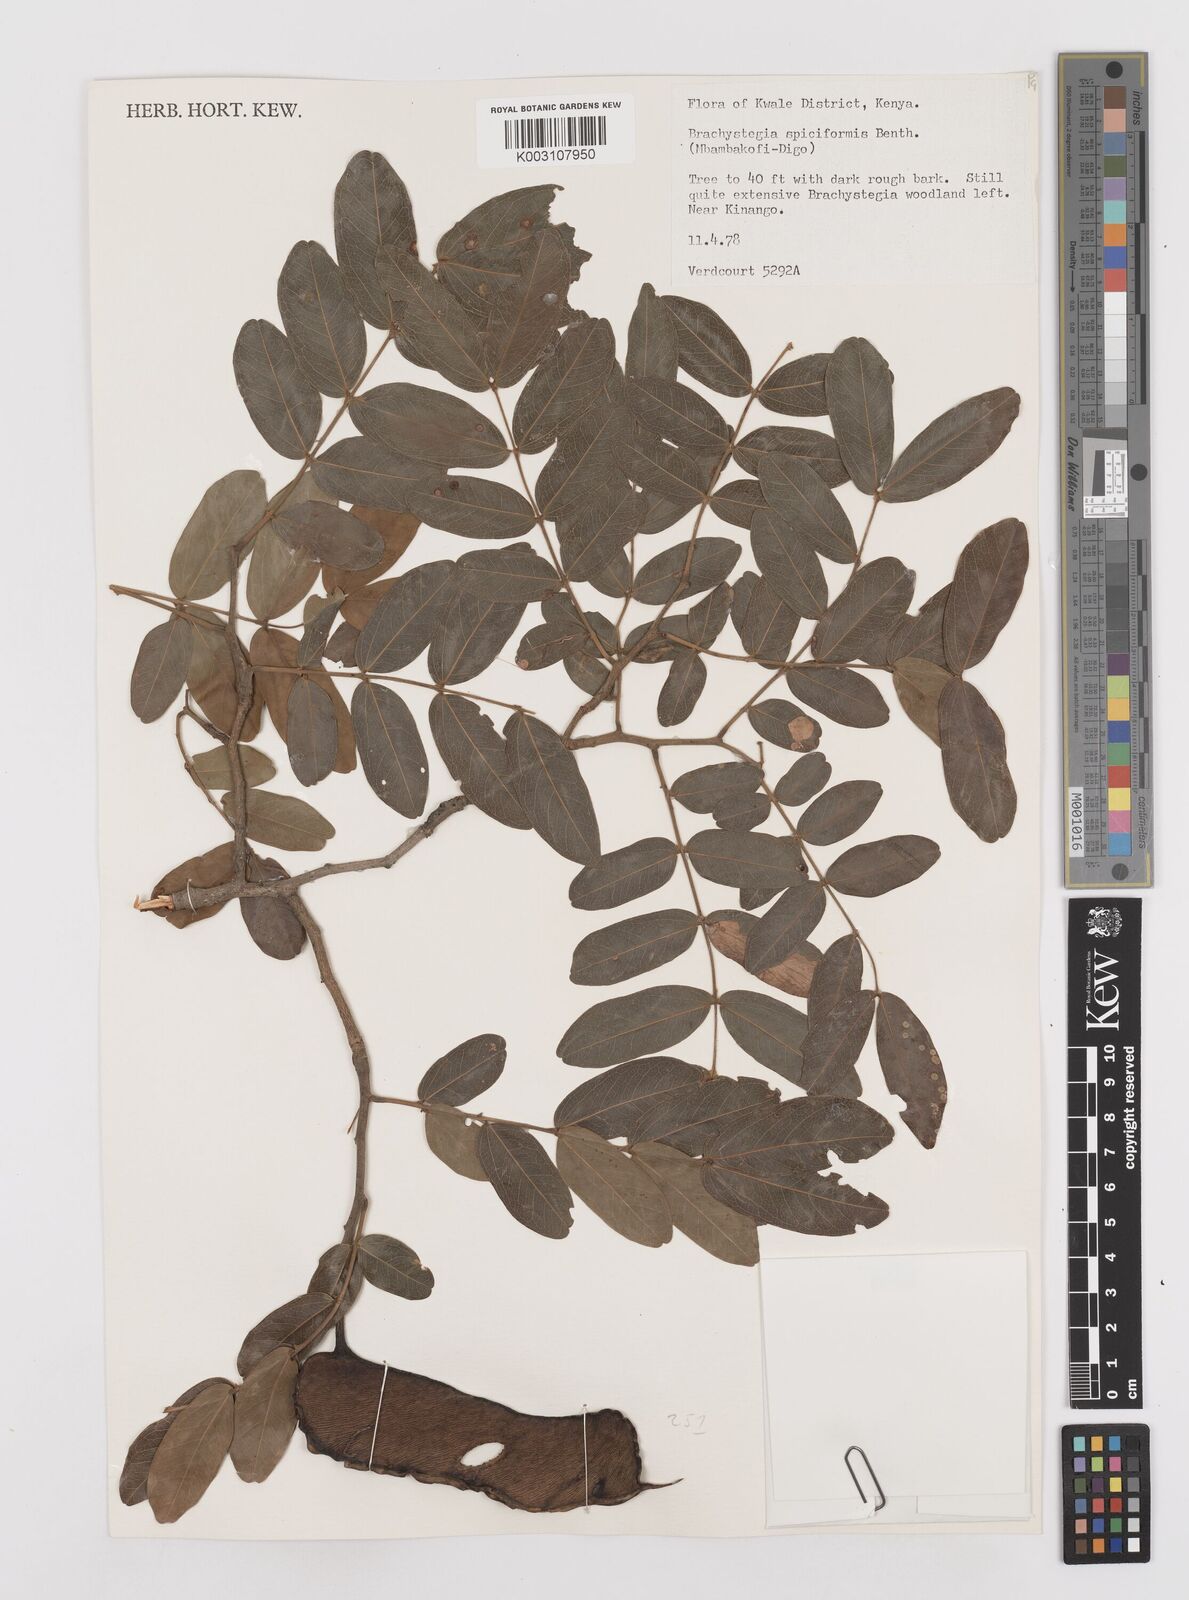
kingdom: Plantae
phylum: Tracheophyta
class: Magnoliopsida
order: Fabales
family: Fabaceae
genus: Brachystegia
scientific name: Brachystegia spiciformis
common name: Zebrawood
